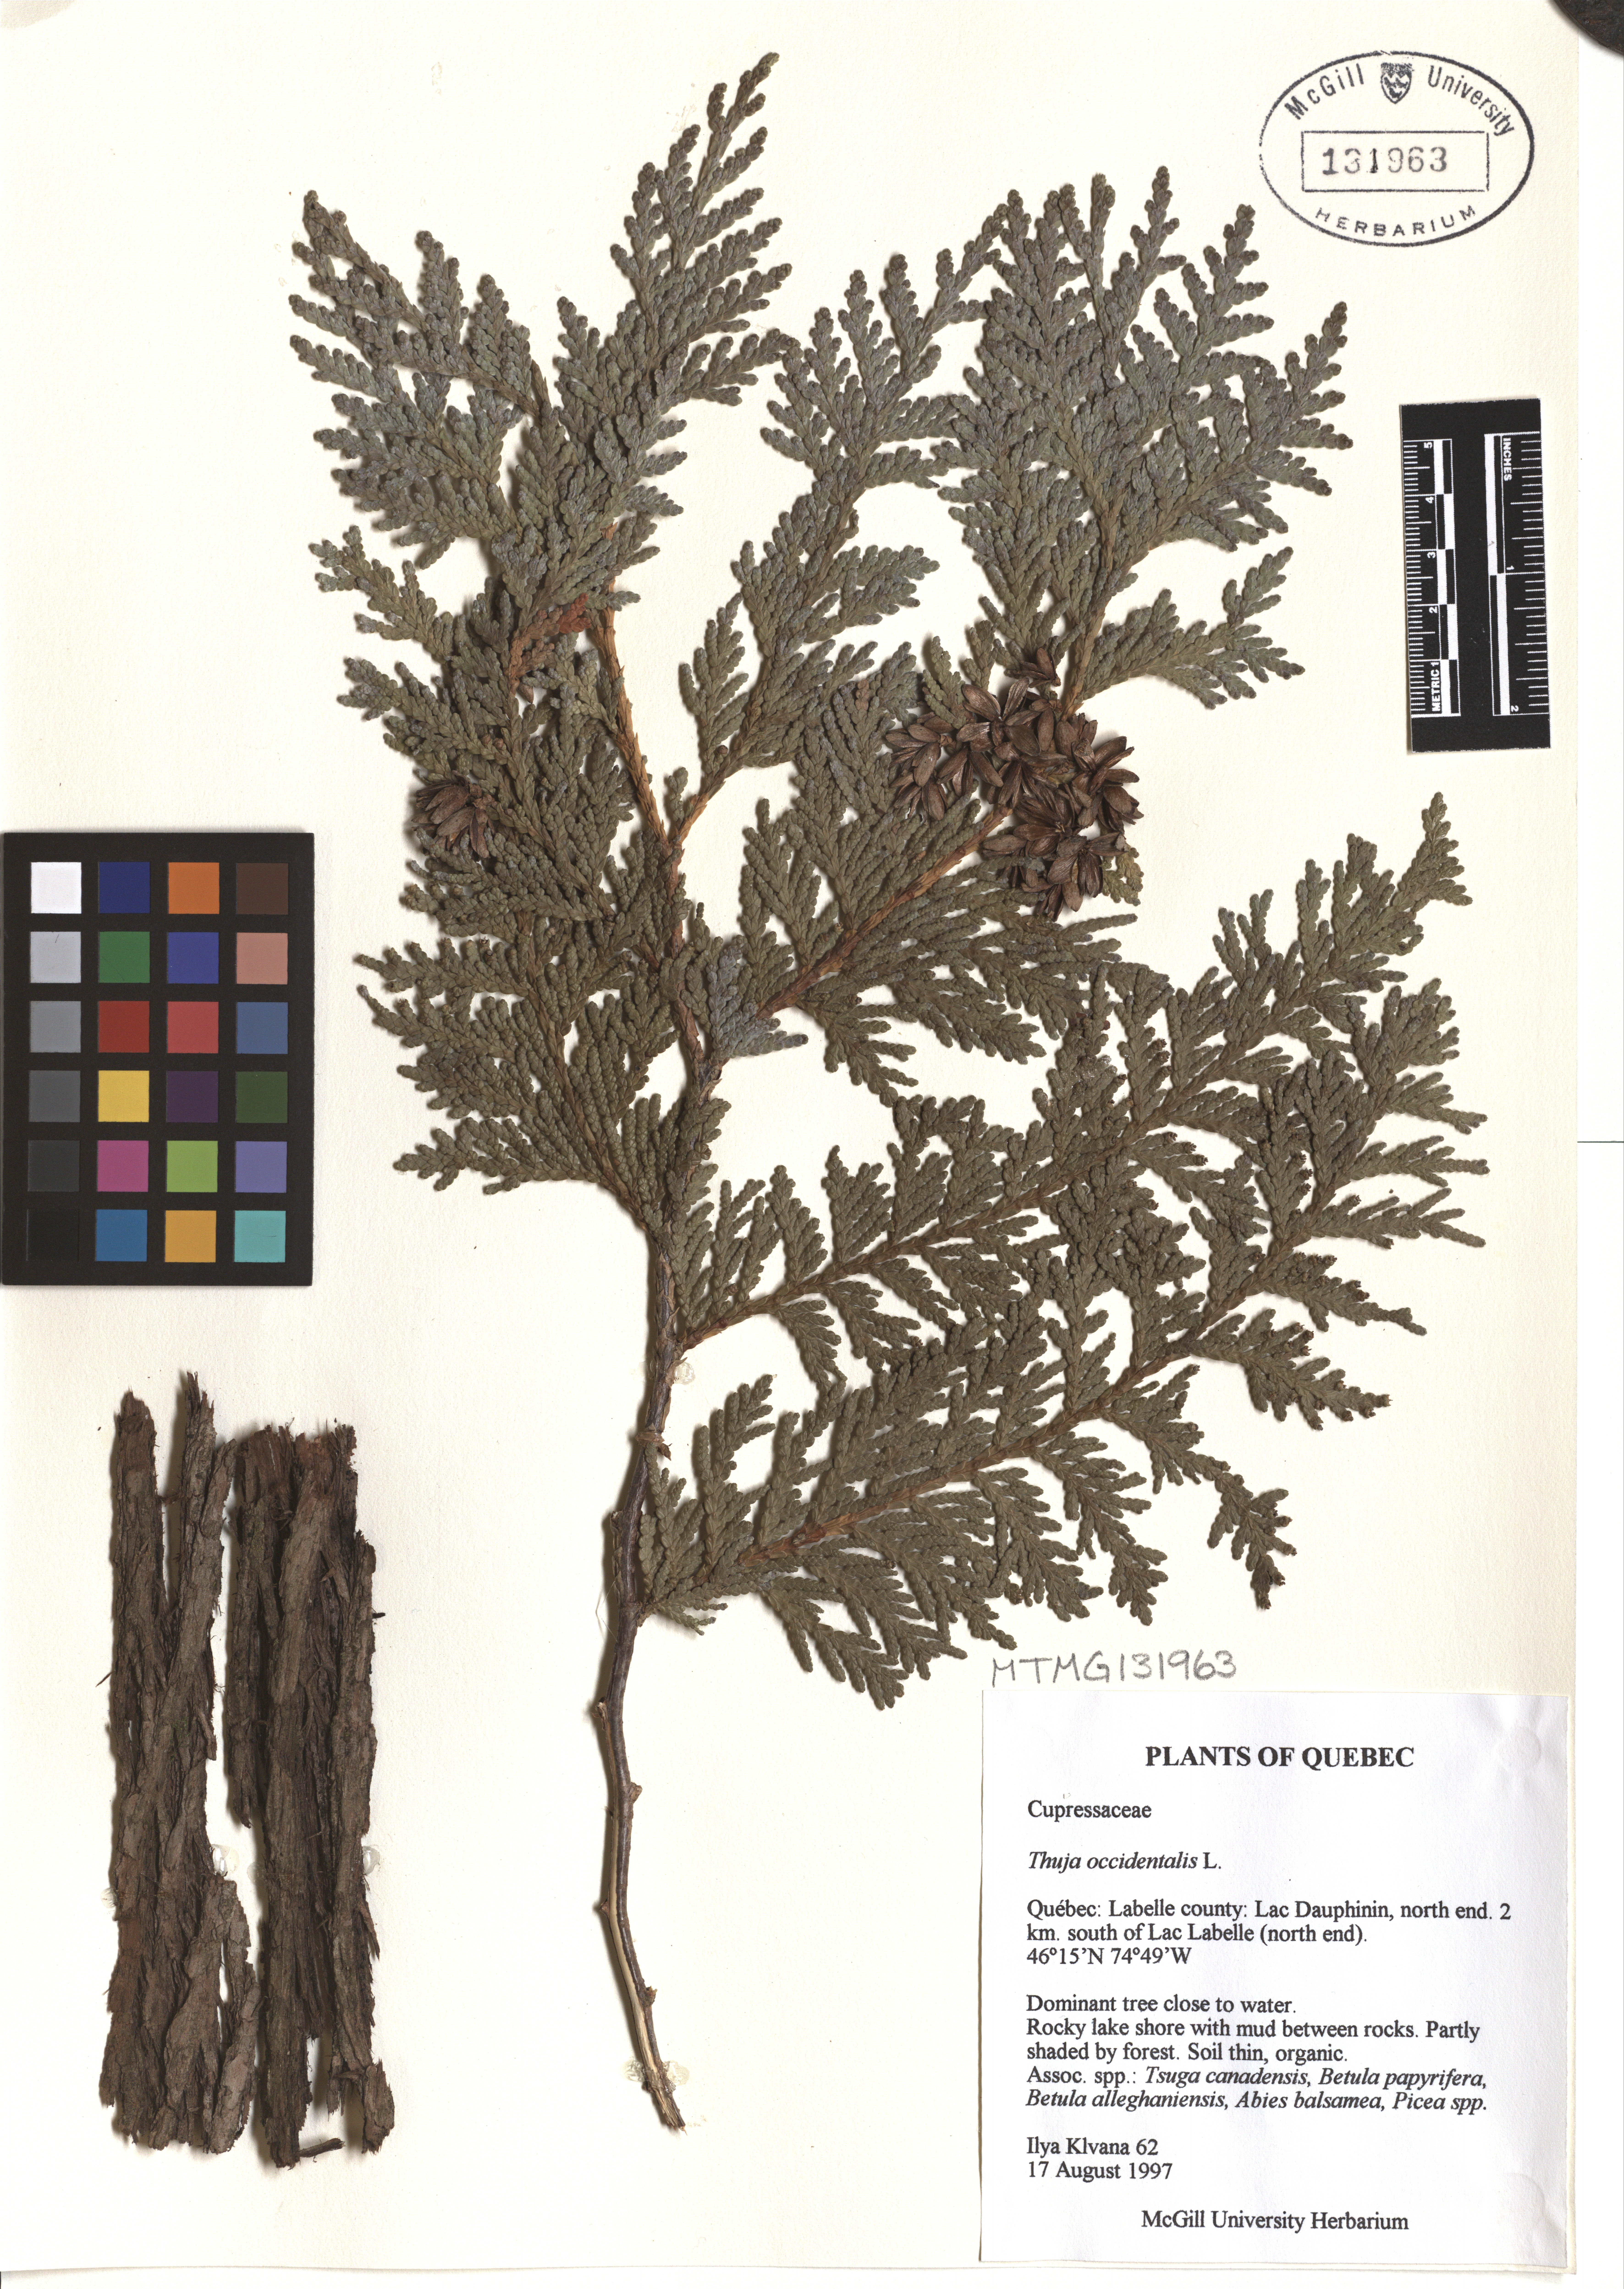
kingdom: Plantae
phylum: Tracheophyta
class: Pinopsida
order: Pinales
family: Cupressaceae
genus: Thuja
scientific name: Thuja occidentalis
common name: Northern white-cedar
